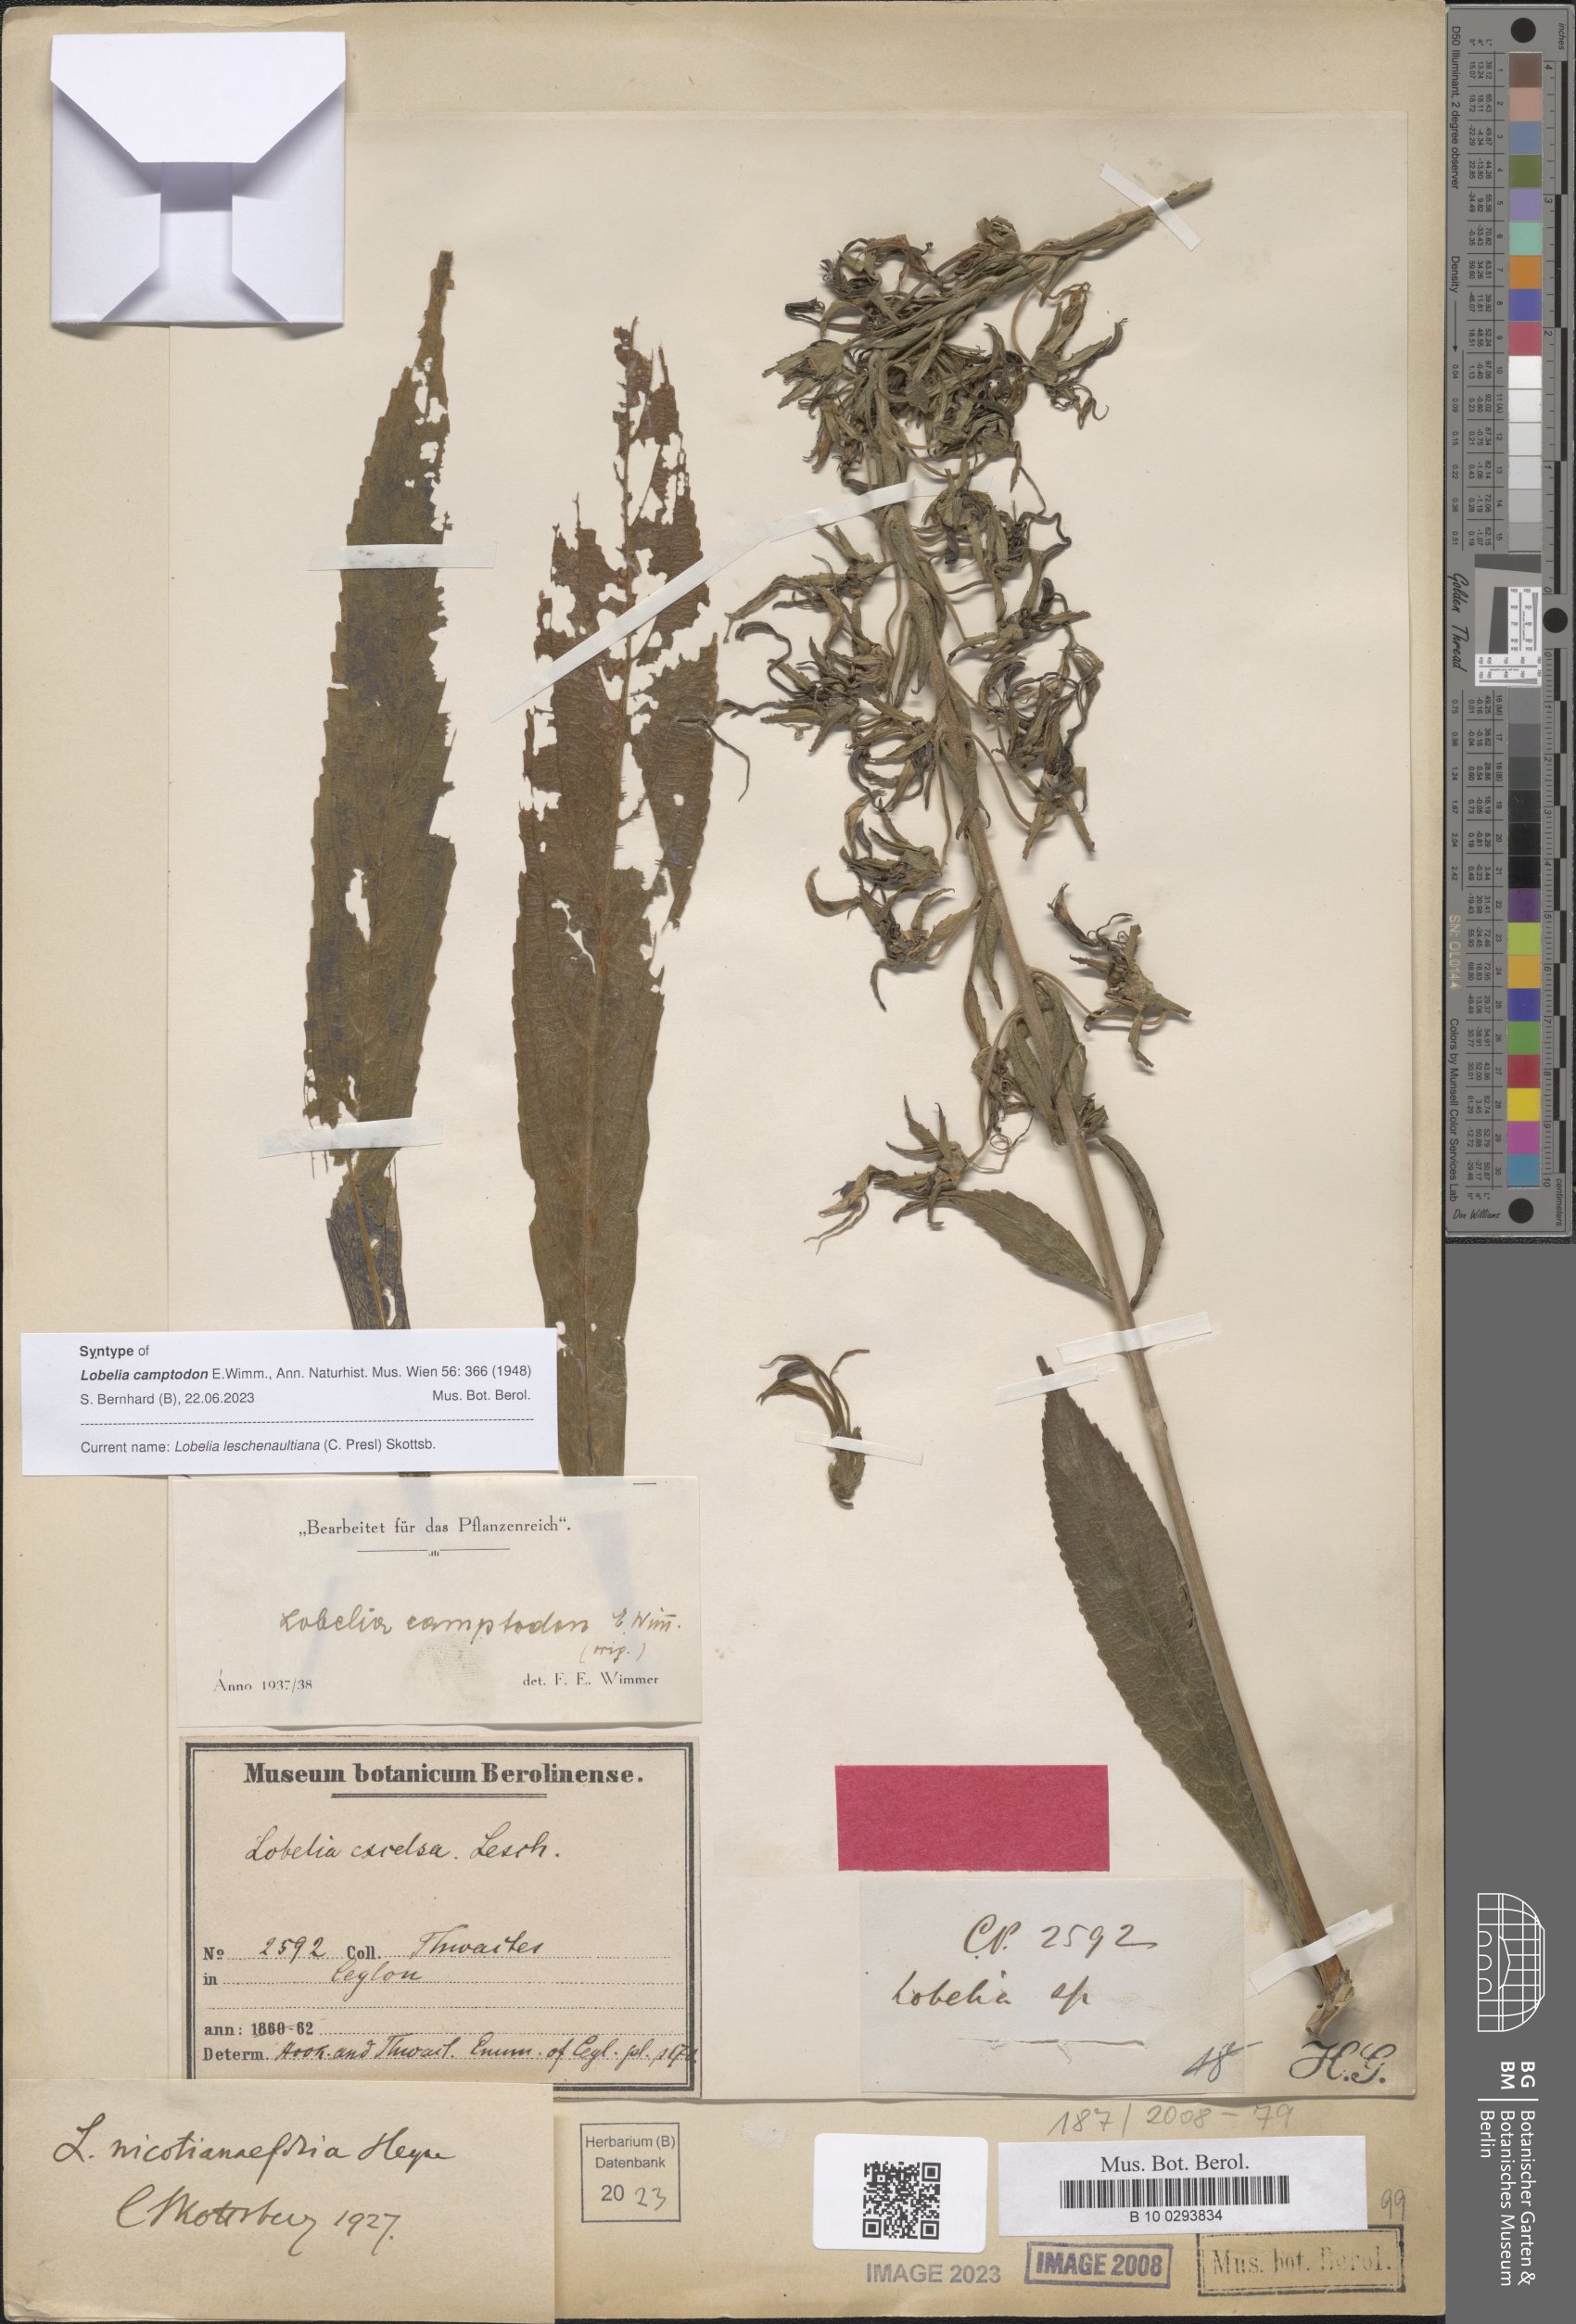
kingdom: Plantae
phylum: Tracheophyta
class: Magnoliopsida
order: Asterales
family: Campanulaceae
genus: Lobelia
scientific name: Lobelia leschenaultiana
